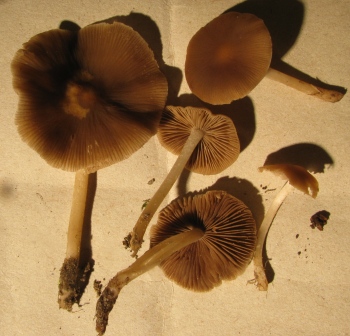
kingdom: Fungi
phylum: Basidiomycota
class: Agaricomycetes
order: Agaricales
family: Psathyrellaceae
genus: Psathyrella
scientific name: Psathyrella clivensis
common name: eng-mørkhat
